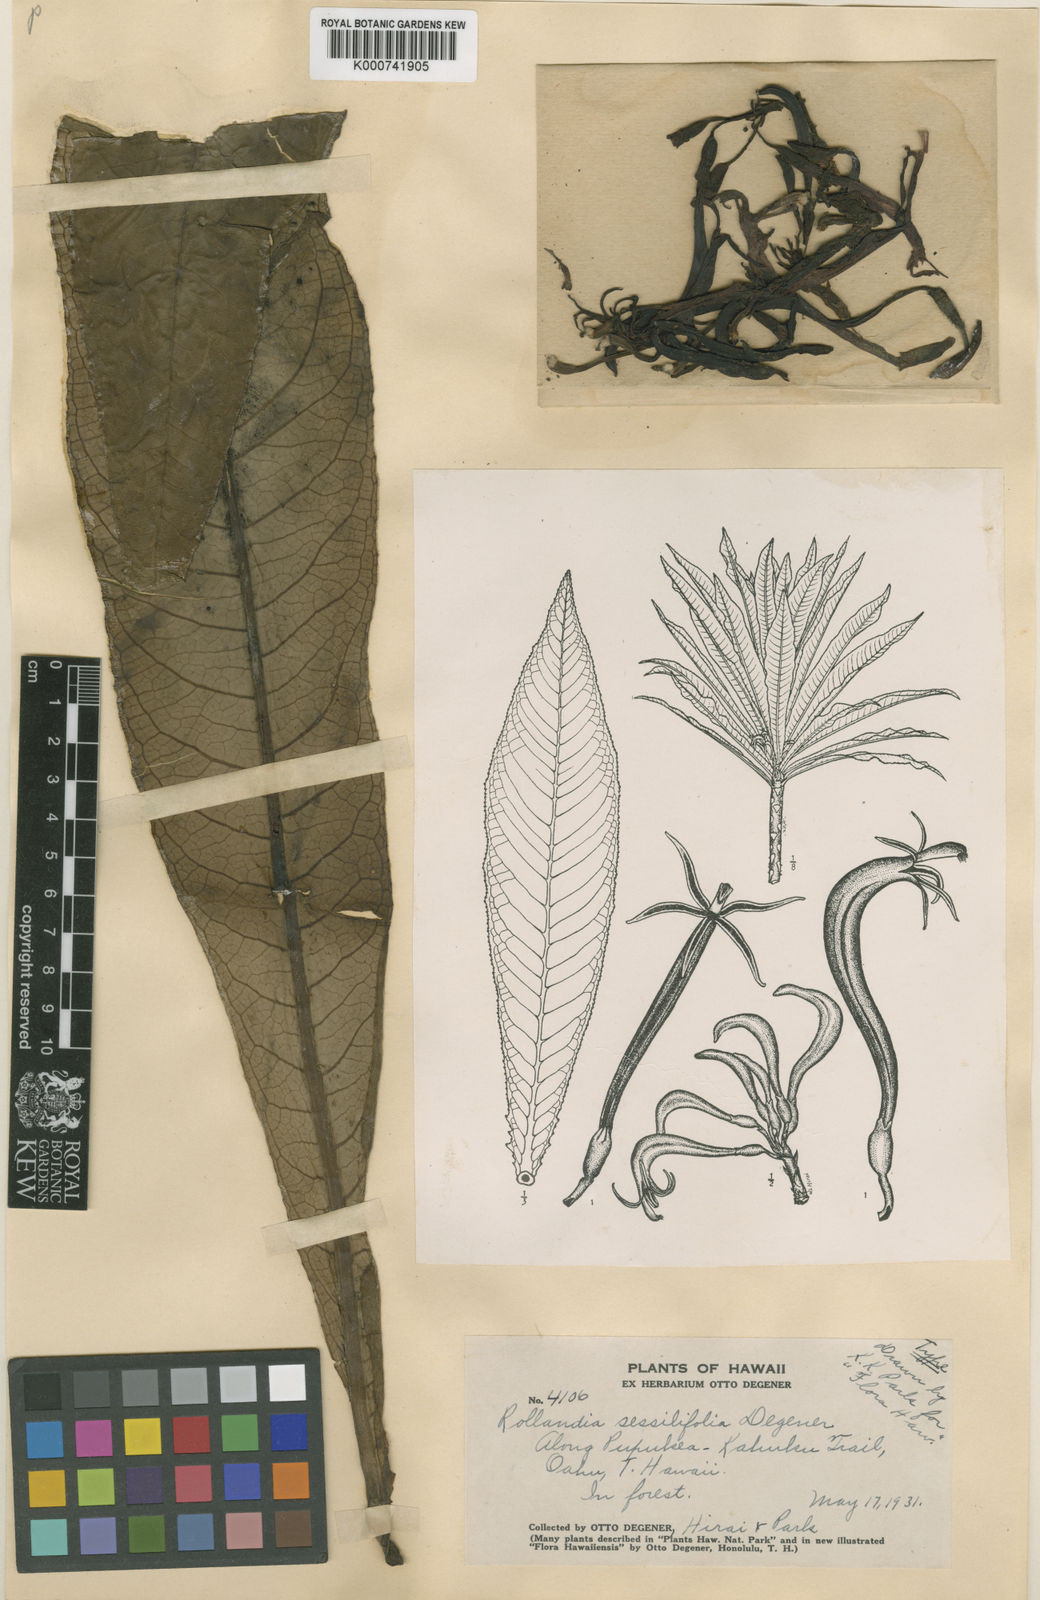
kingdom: Plantae
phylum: Tracheophyta
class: Magnoliopsida
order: Asterales
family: Campanulaceae
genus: Cyanea
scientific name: Cyanea sessilifolia
